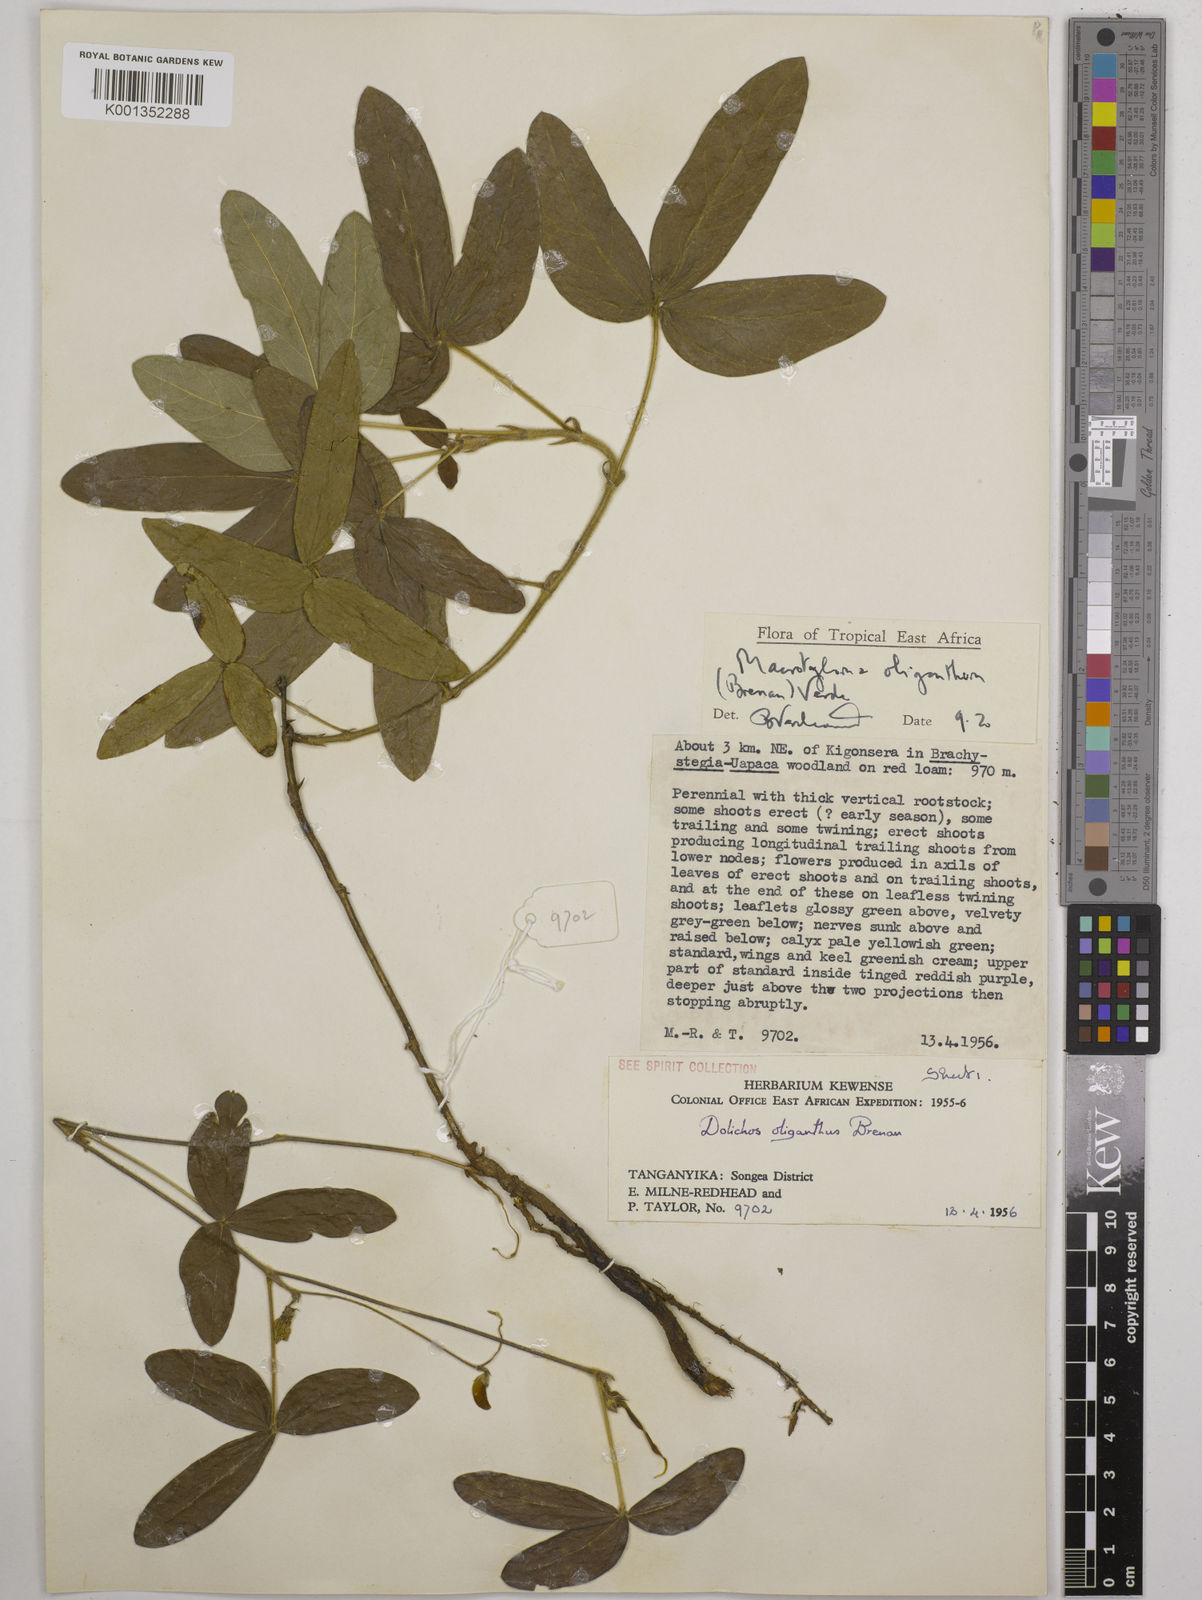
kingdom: Plantae
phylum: Tracheophyta
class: Magnoliopsida
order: Fabales
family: Fabaceae
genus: Macrotyloma
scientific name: Macrotyloma oliganthum
